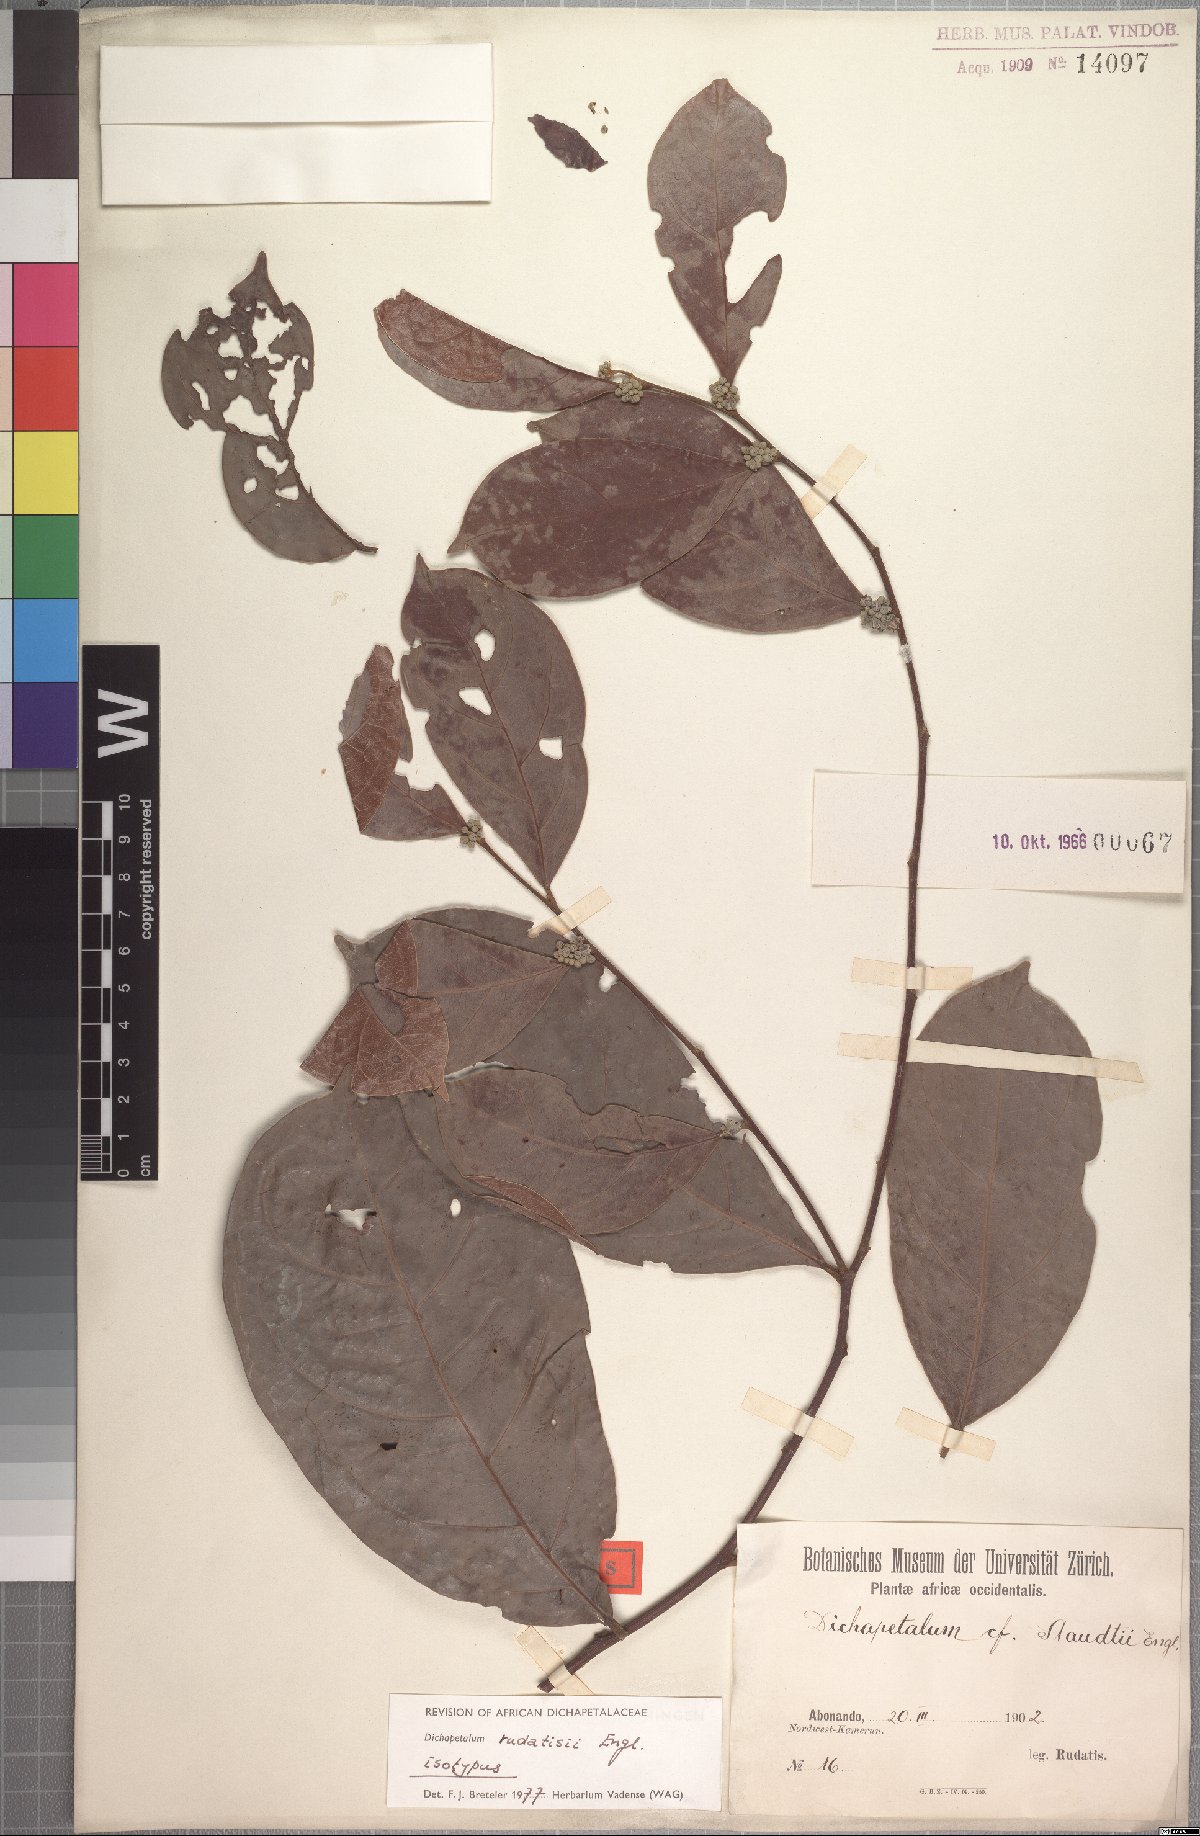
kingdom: Plantae
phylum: Tracheophyta
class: Magnoliopsida
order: Malpighiales
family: Dichapetalaceae
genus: Dichapetalum
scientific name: Dichapetalum rudatisii
